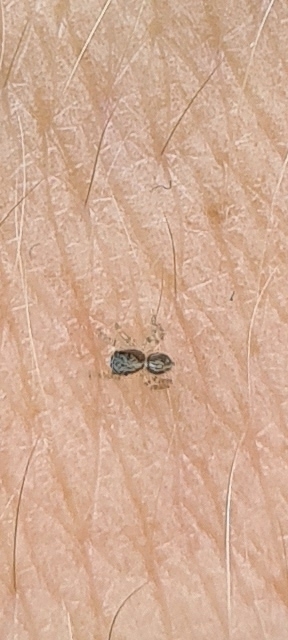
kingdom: Animalia
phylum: Arthropoda
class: Arachnida
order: Araneae
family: Salticidae
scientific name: Salticidae
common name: Springedderkopper
